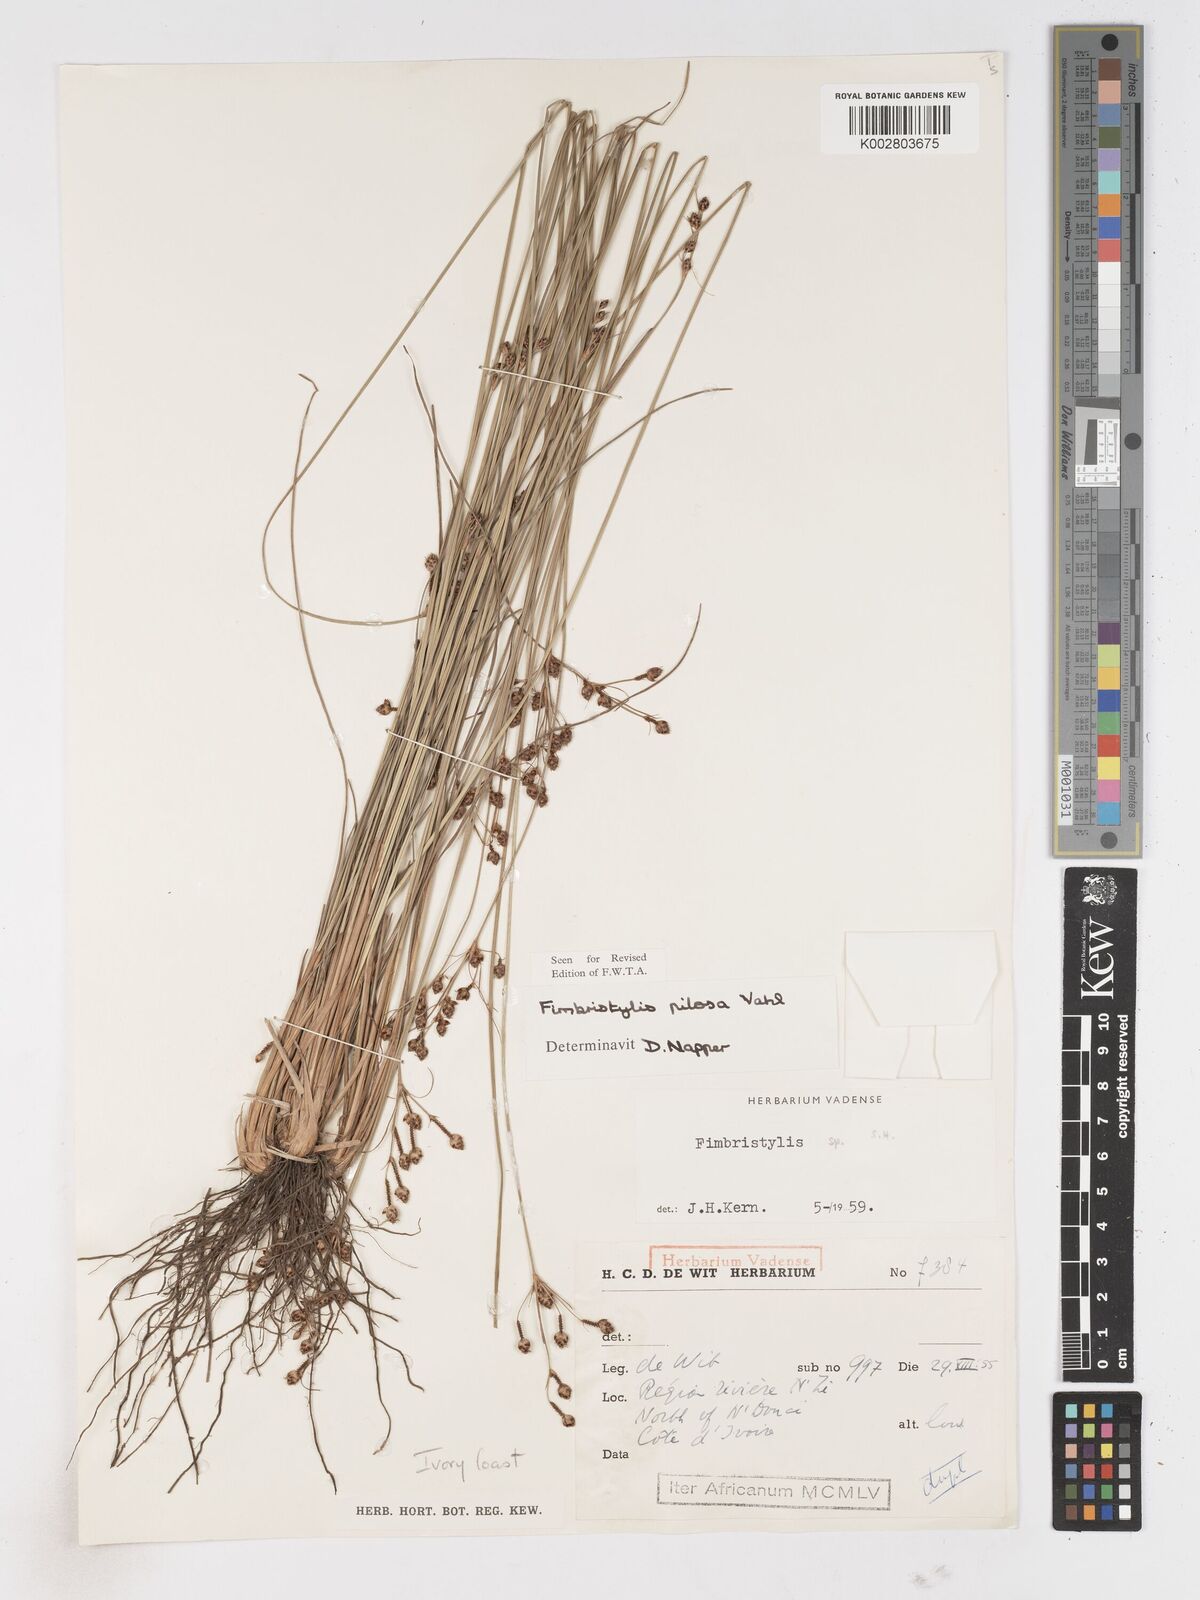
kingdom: Plantae
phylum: Tracheophyta
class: Liliopsida
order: Poales
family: Cyperaceae
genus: Fimbristylis
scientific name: Fimbristylis pilosa
